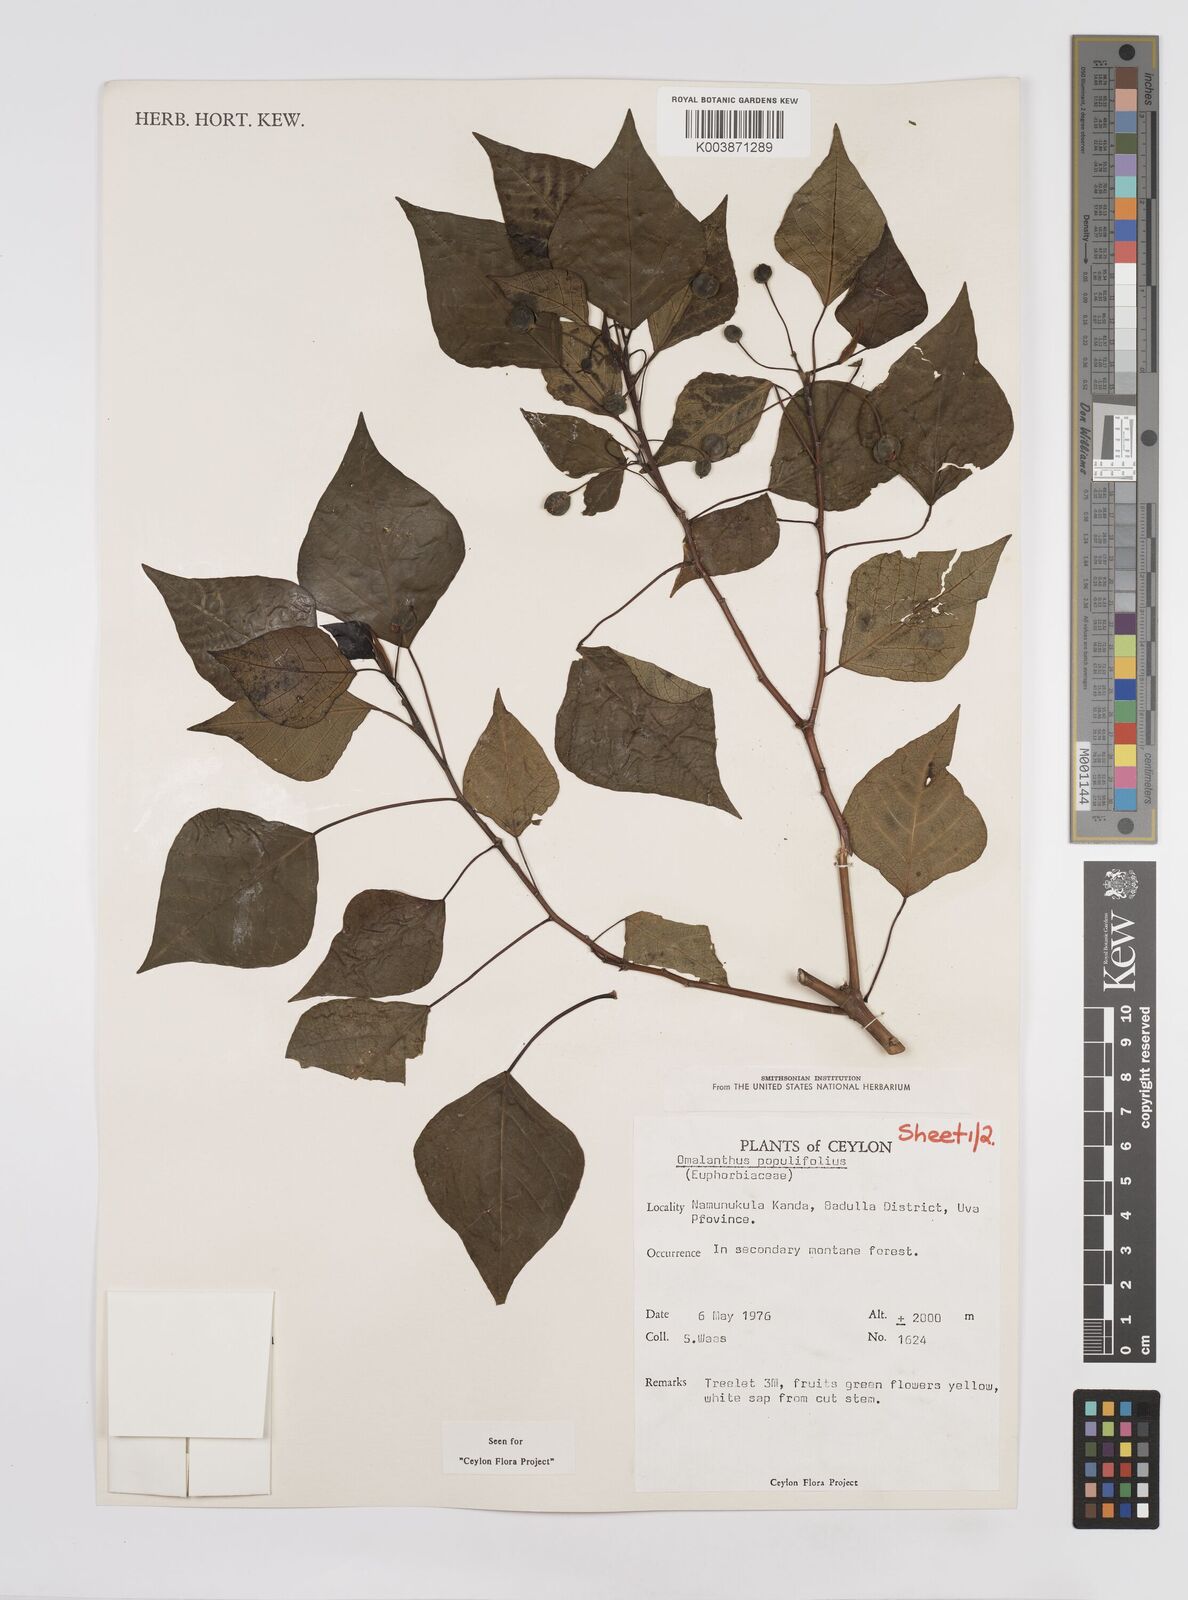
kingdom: Plantae
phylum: Tracheophyta
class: Magnoliopsida
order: Malpighiales
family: Euphorbiaceae
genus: Homalanthus
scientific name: Homalanthus populneus
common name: Spurge
